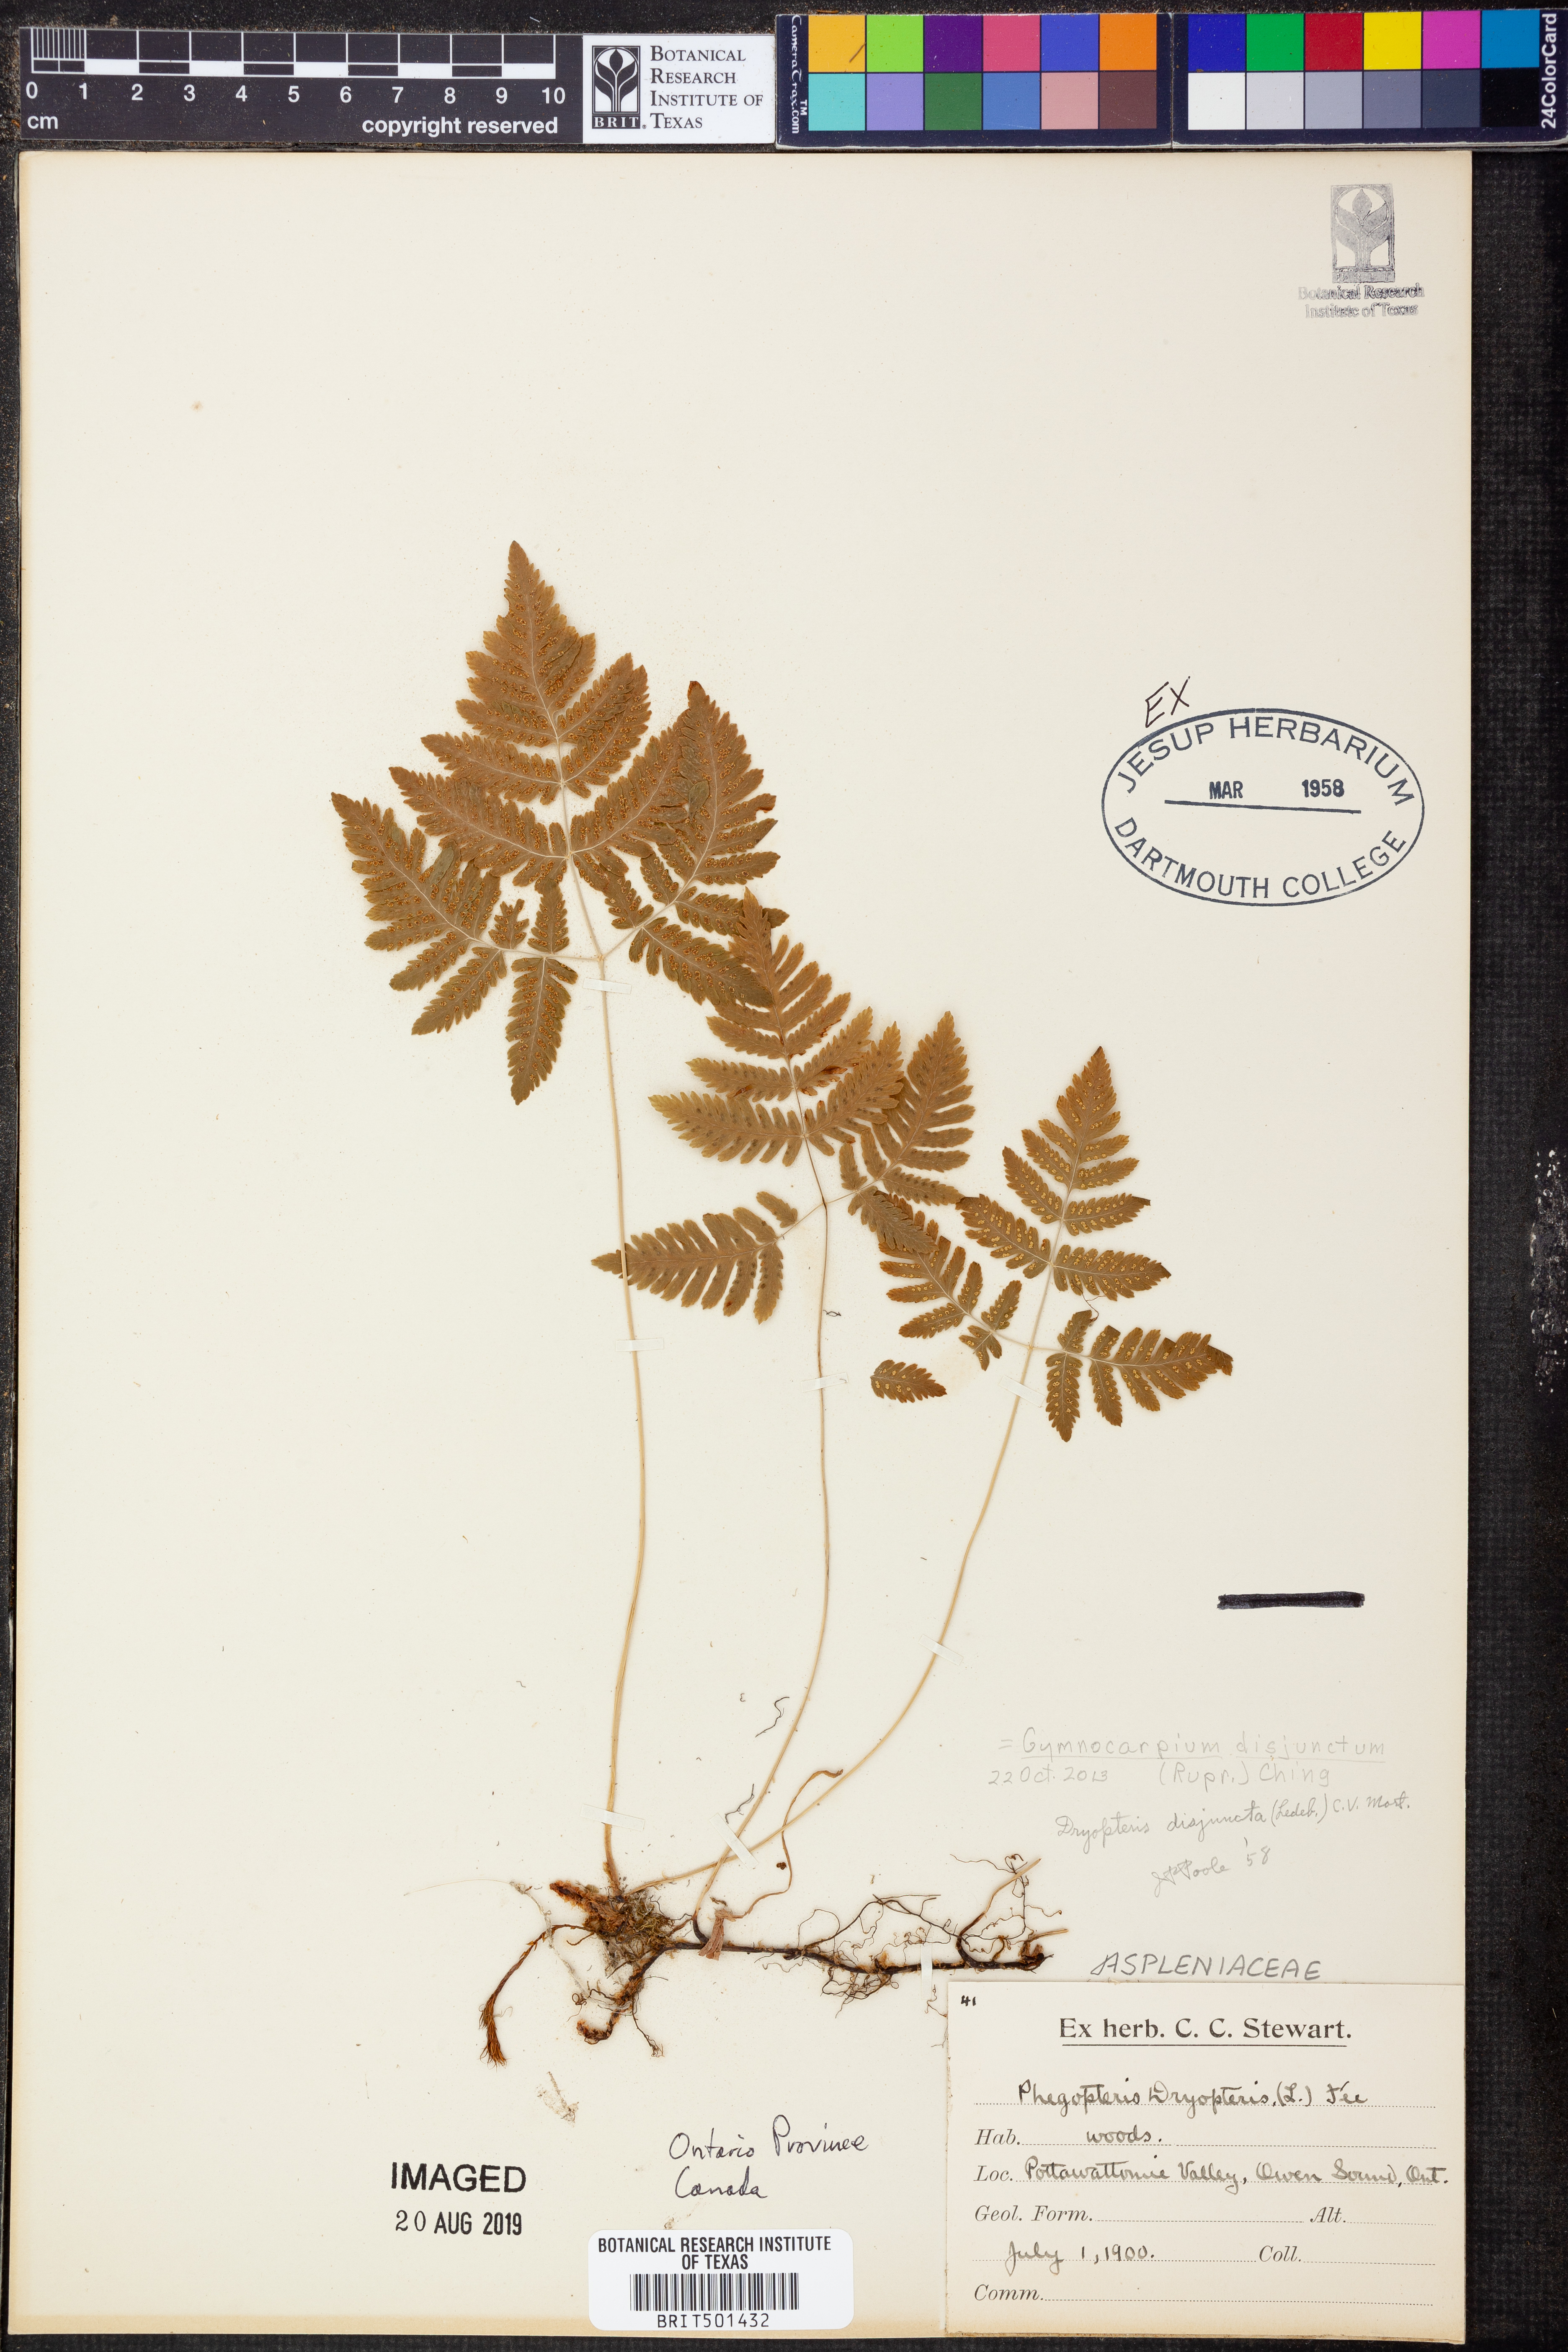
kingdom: Plantae
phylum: Tracheophyta
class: Polypodiopsida
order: Polypodiales
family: Cystopteridaceae
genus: Gymnocarpium
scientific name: Gymnocarpium disjunctum
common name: Western oak fern
